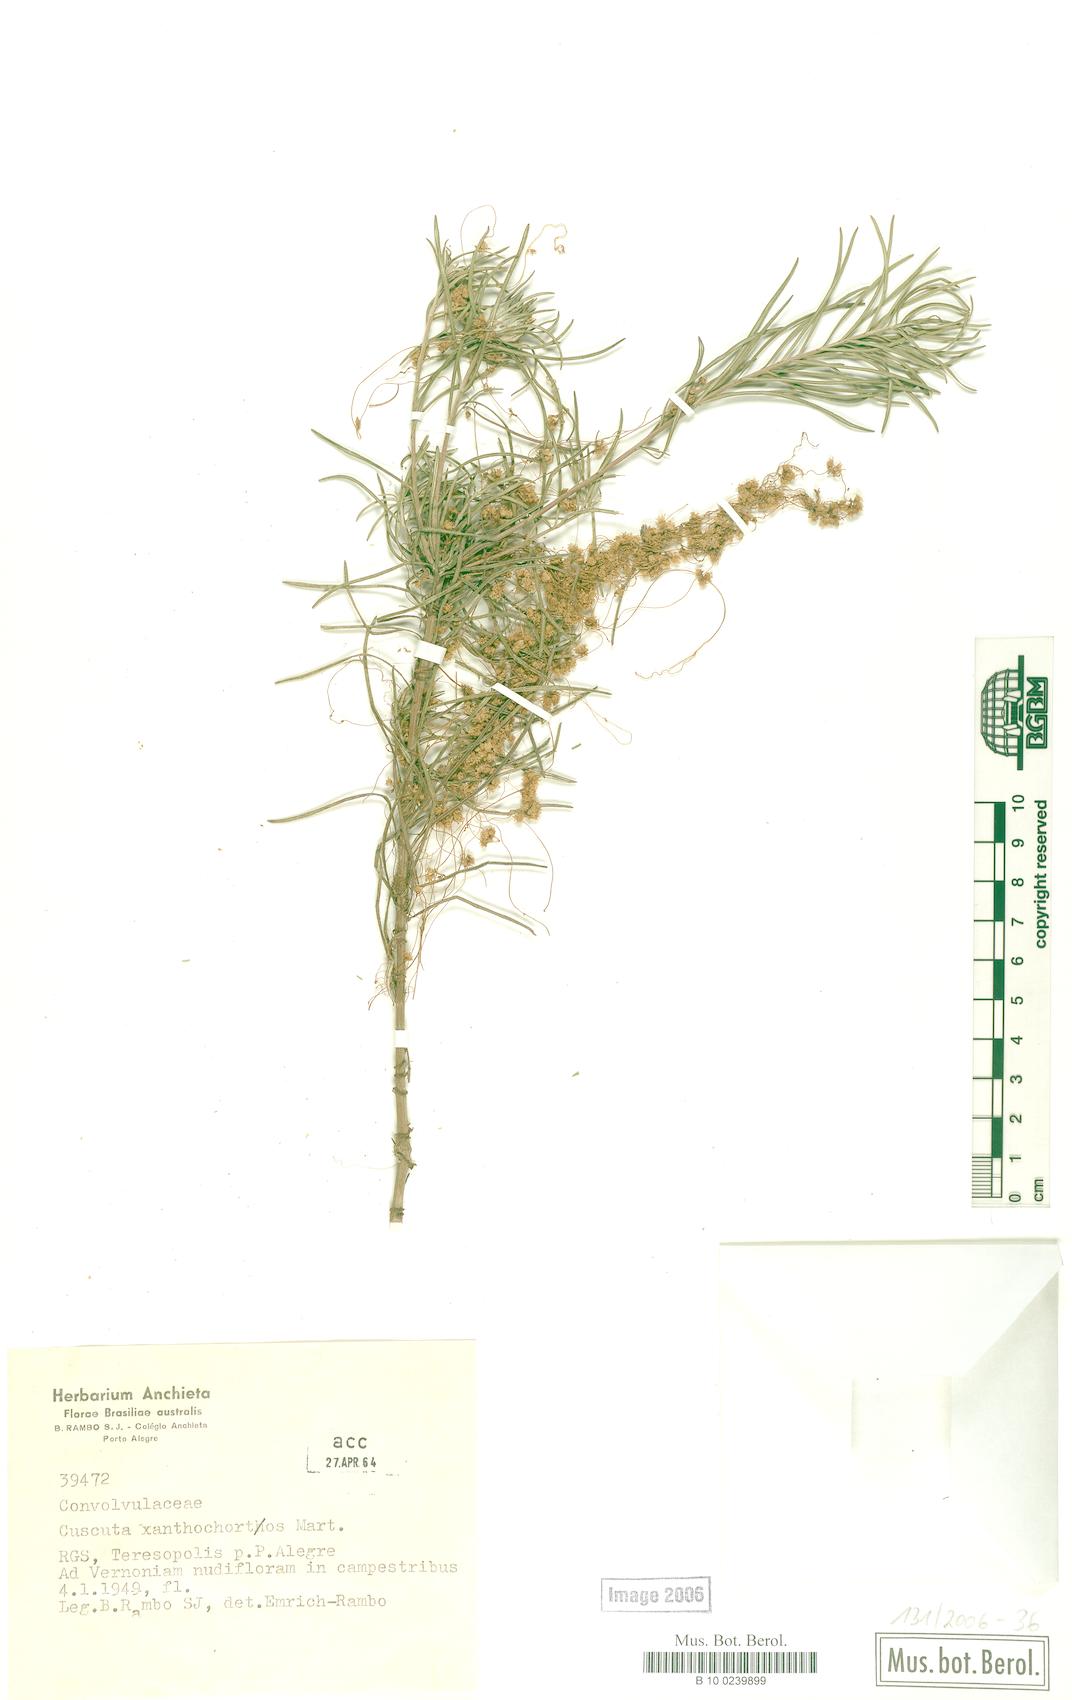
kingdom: Plantae
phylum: Tracheophyta
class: Magnoliopsida
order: Solanales
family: Convolvulaceae
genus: Cuscuta
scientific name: Cuscuta xanthochortos
